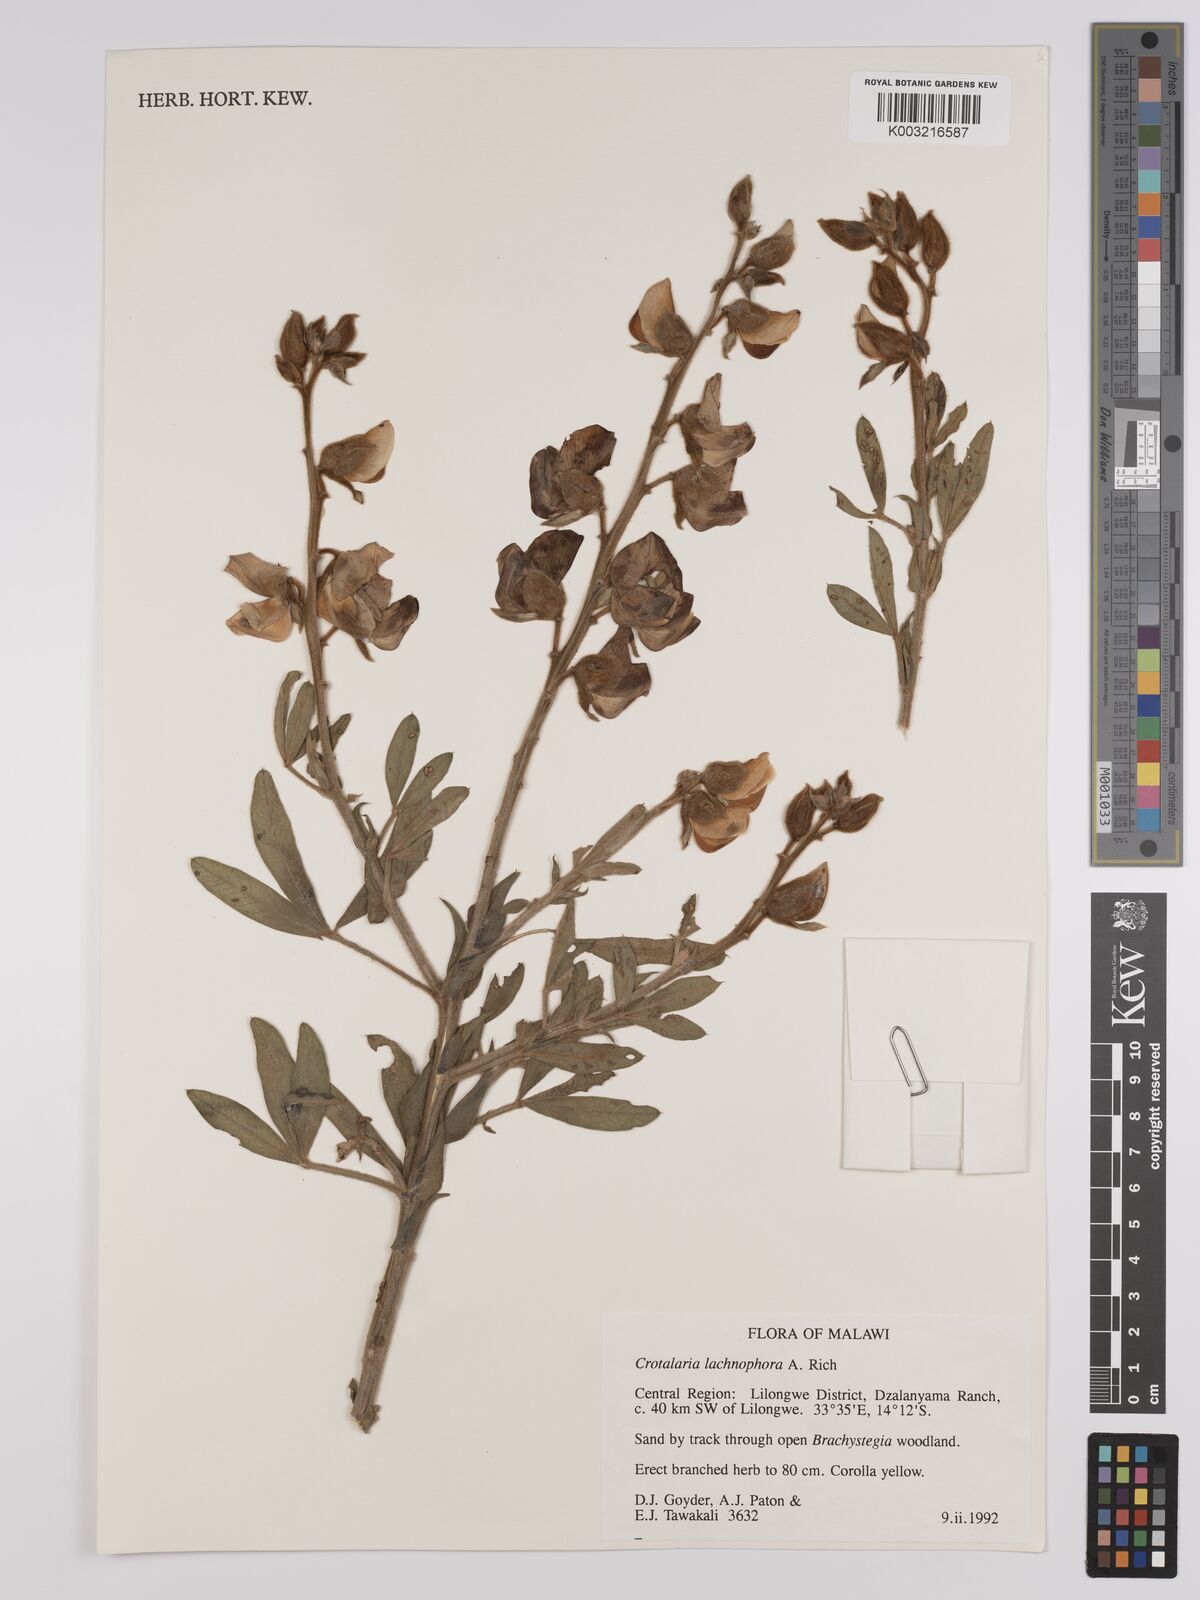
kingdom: Plantae
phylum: Tracheophyta
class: Magnoliopsida
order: Fabales
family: Fabaceae
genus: Crotalaria
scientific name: Crotalaria lachnophora
